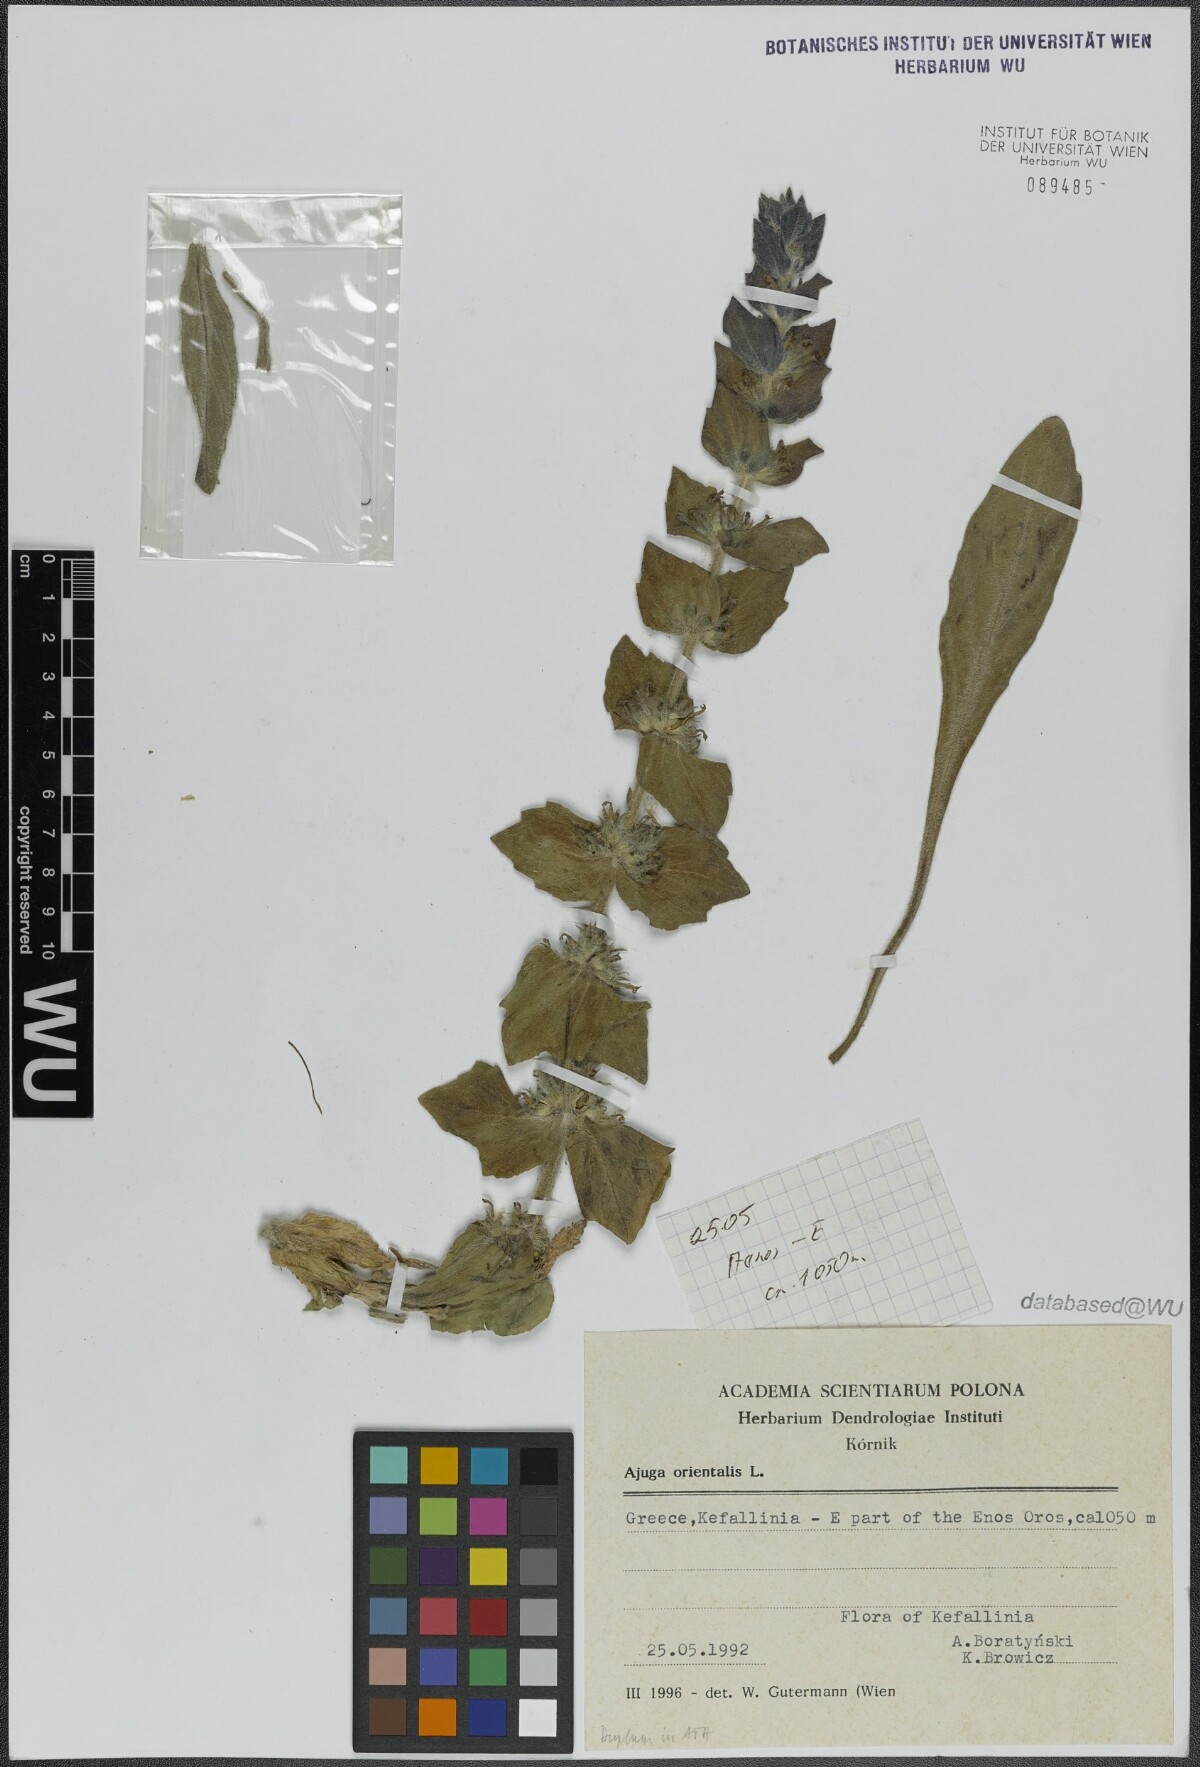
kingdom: Plantae
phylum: Tracheophyta
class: Magnoliopsida
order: Lamiales
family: Lamiaceae
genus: Ajuga
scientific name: Ajuga orientalis
